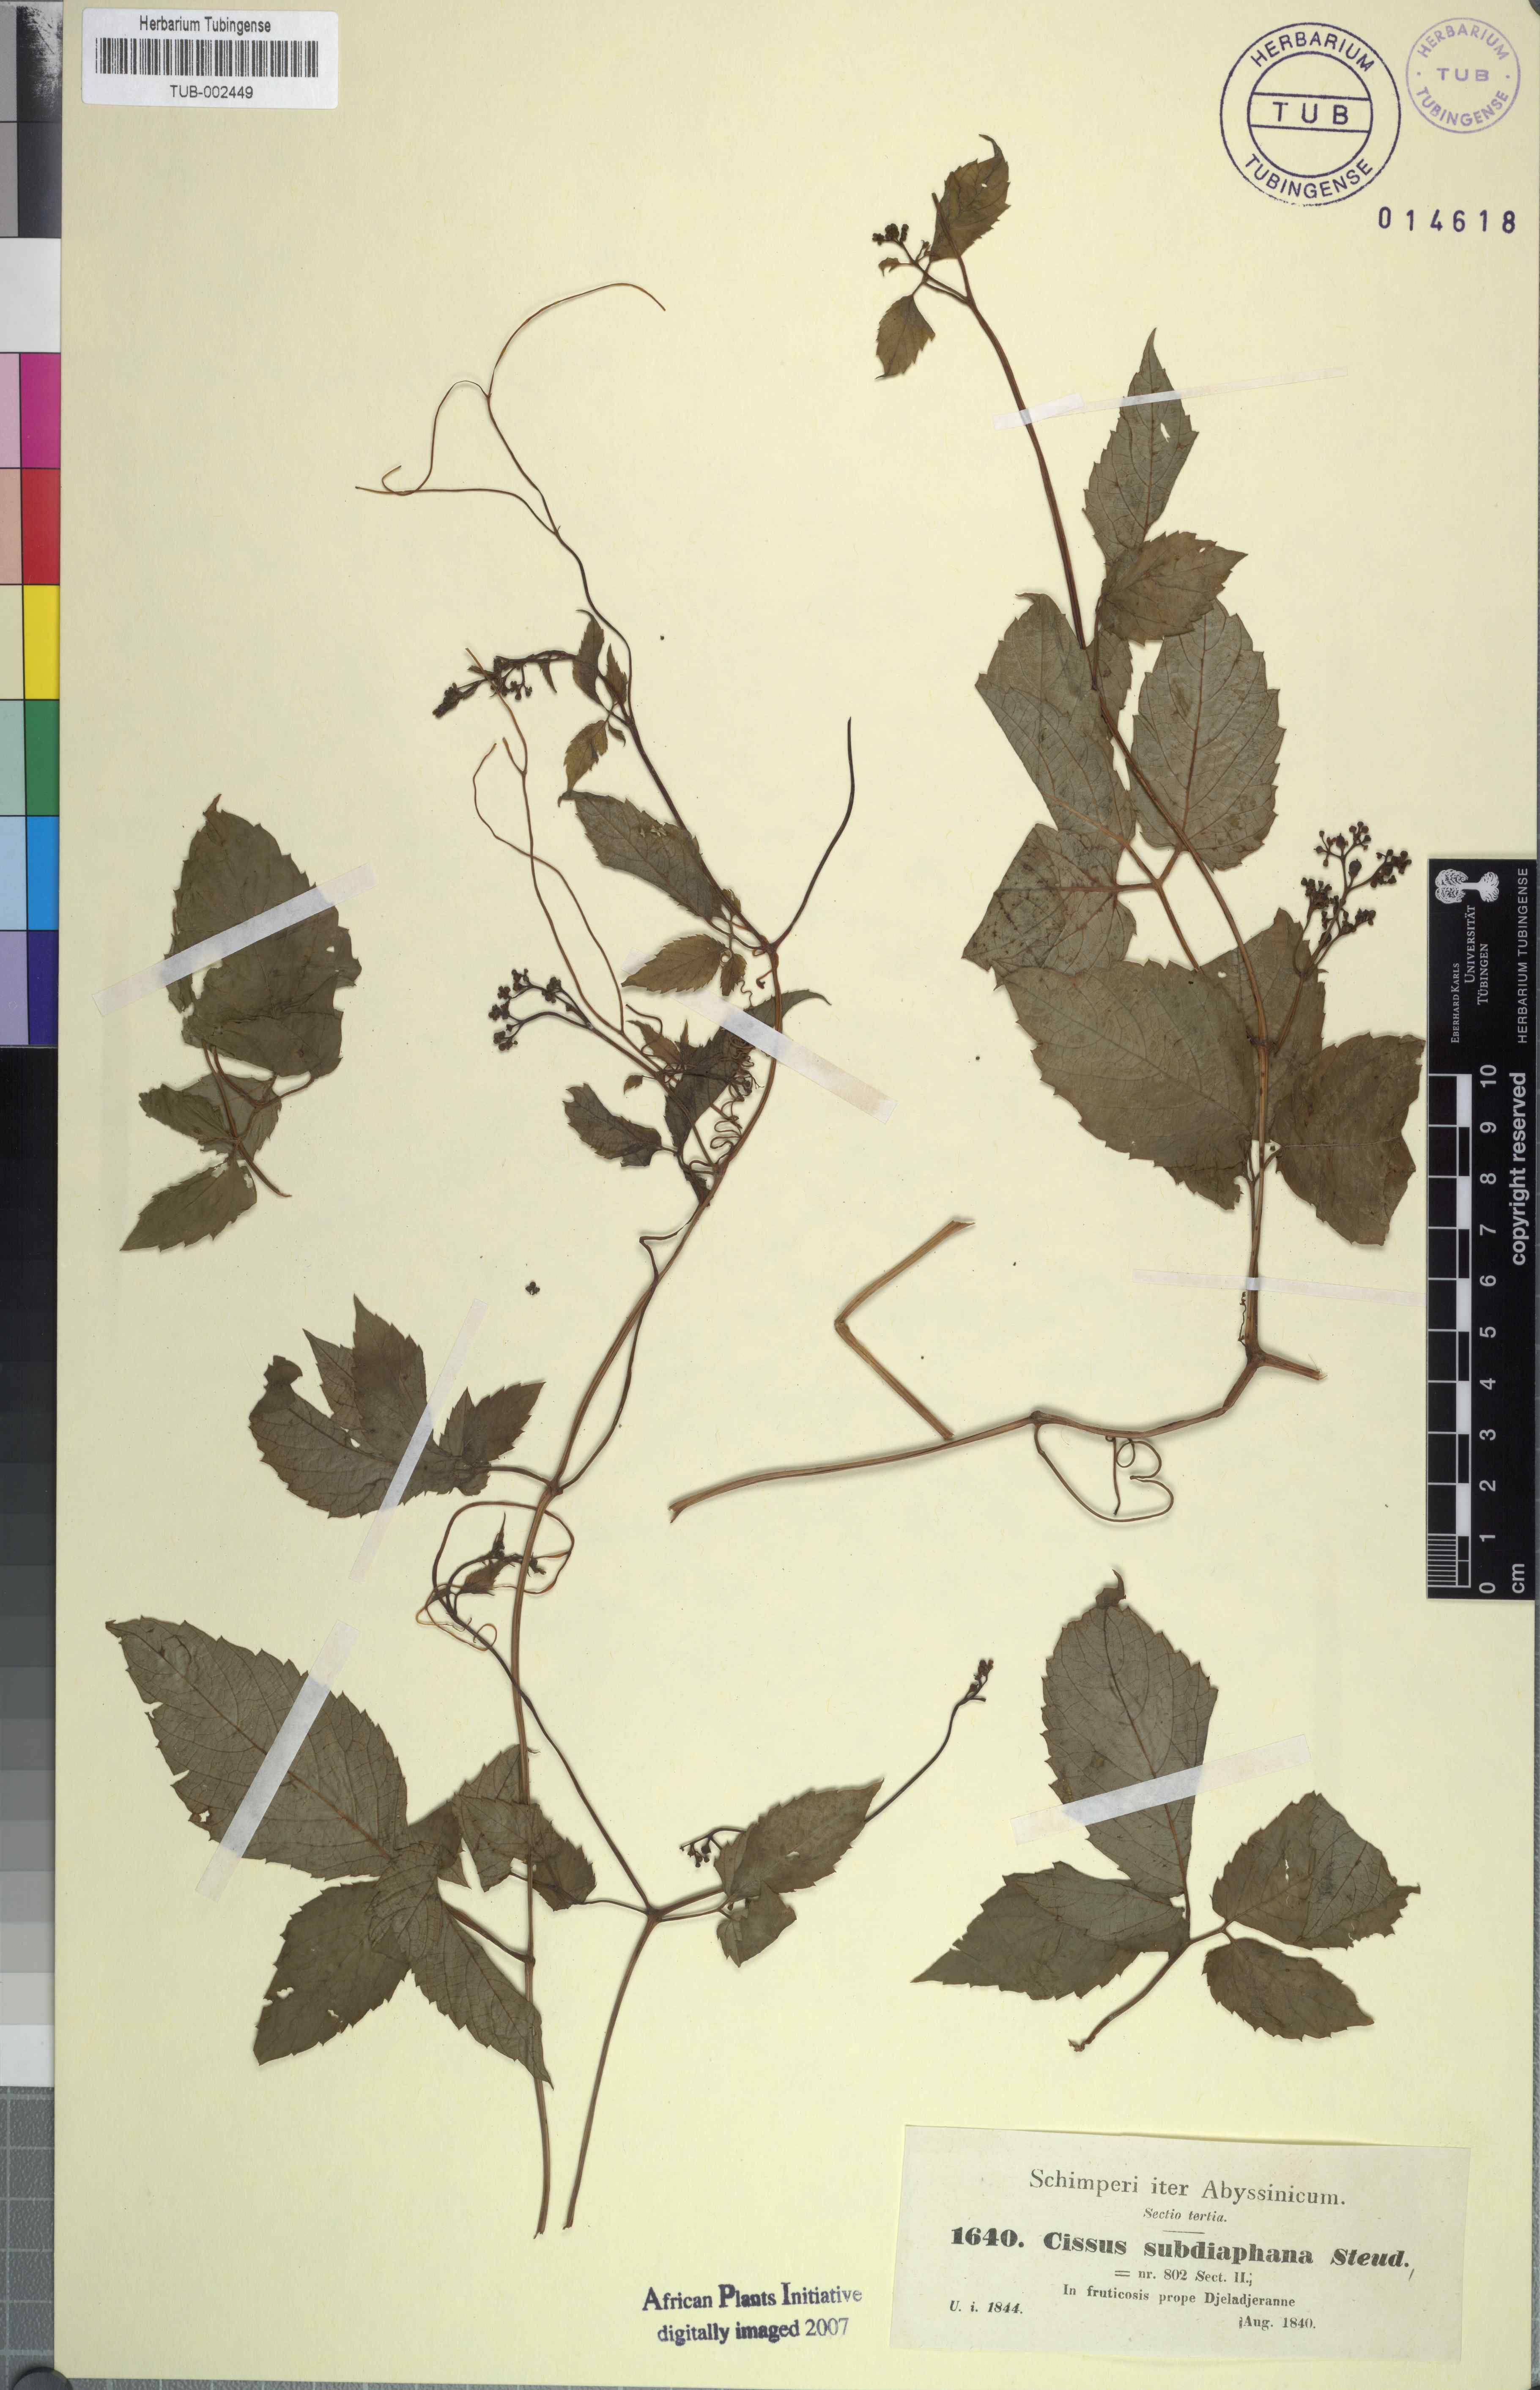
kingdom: Plantae
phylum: Tracheophyta
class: Magnoliopsida
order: Vitales
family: Vitaceae
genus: Afrocayratia
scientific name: Afrocayratia gracilis
